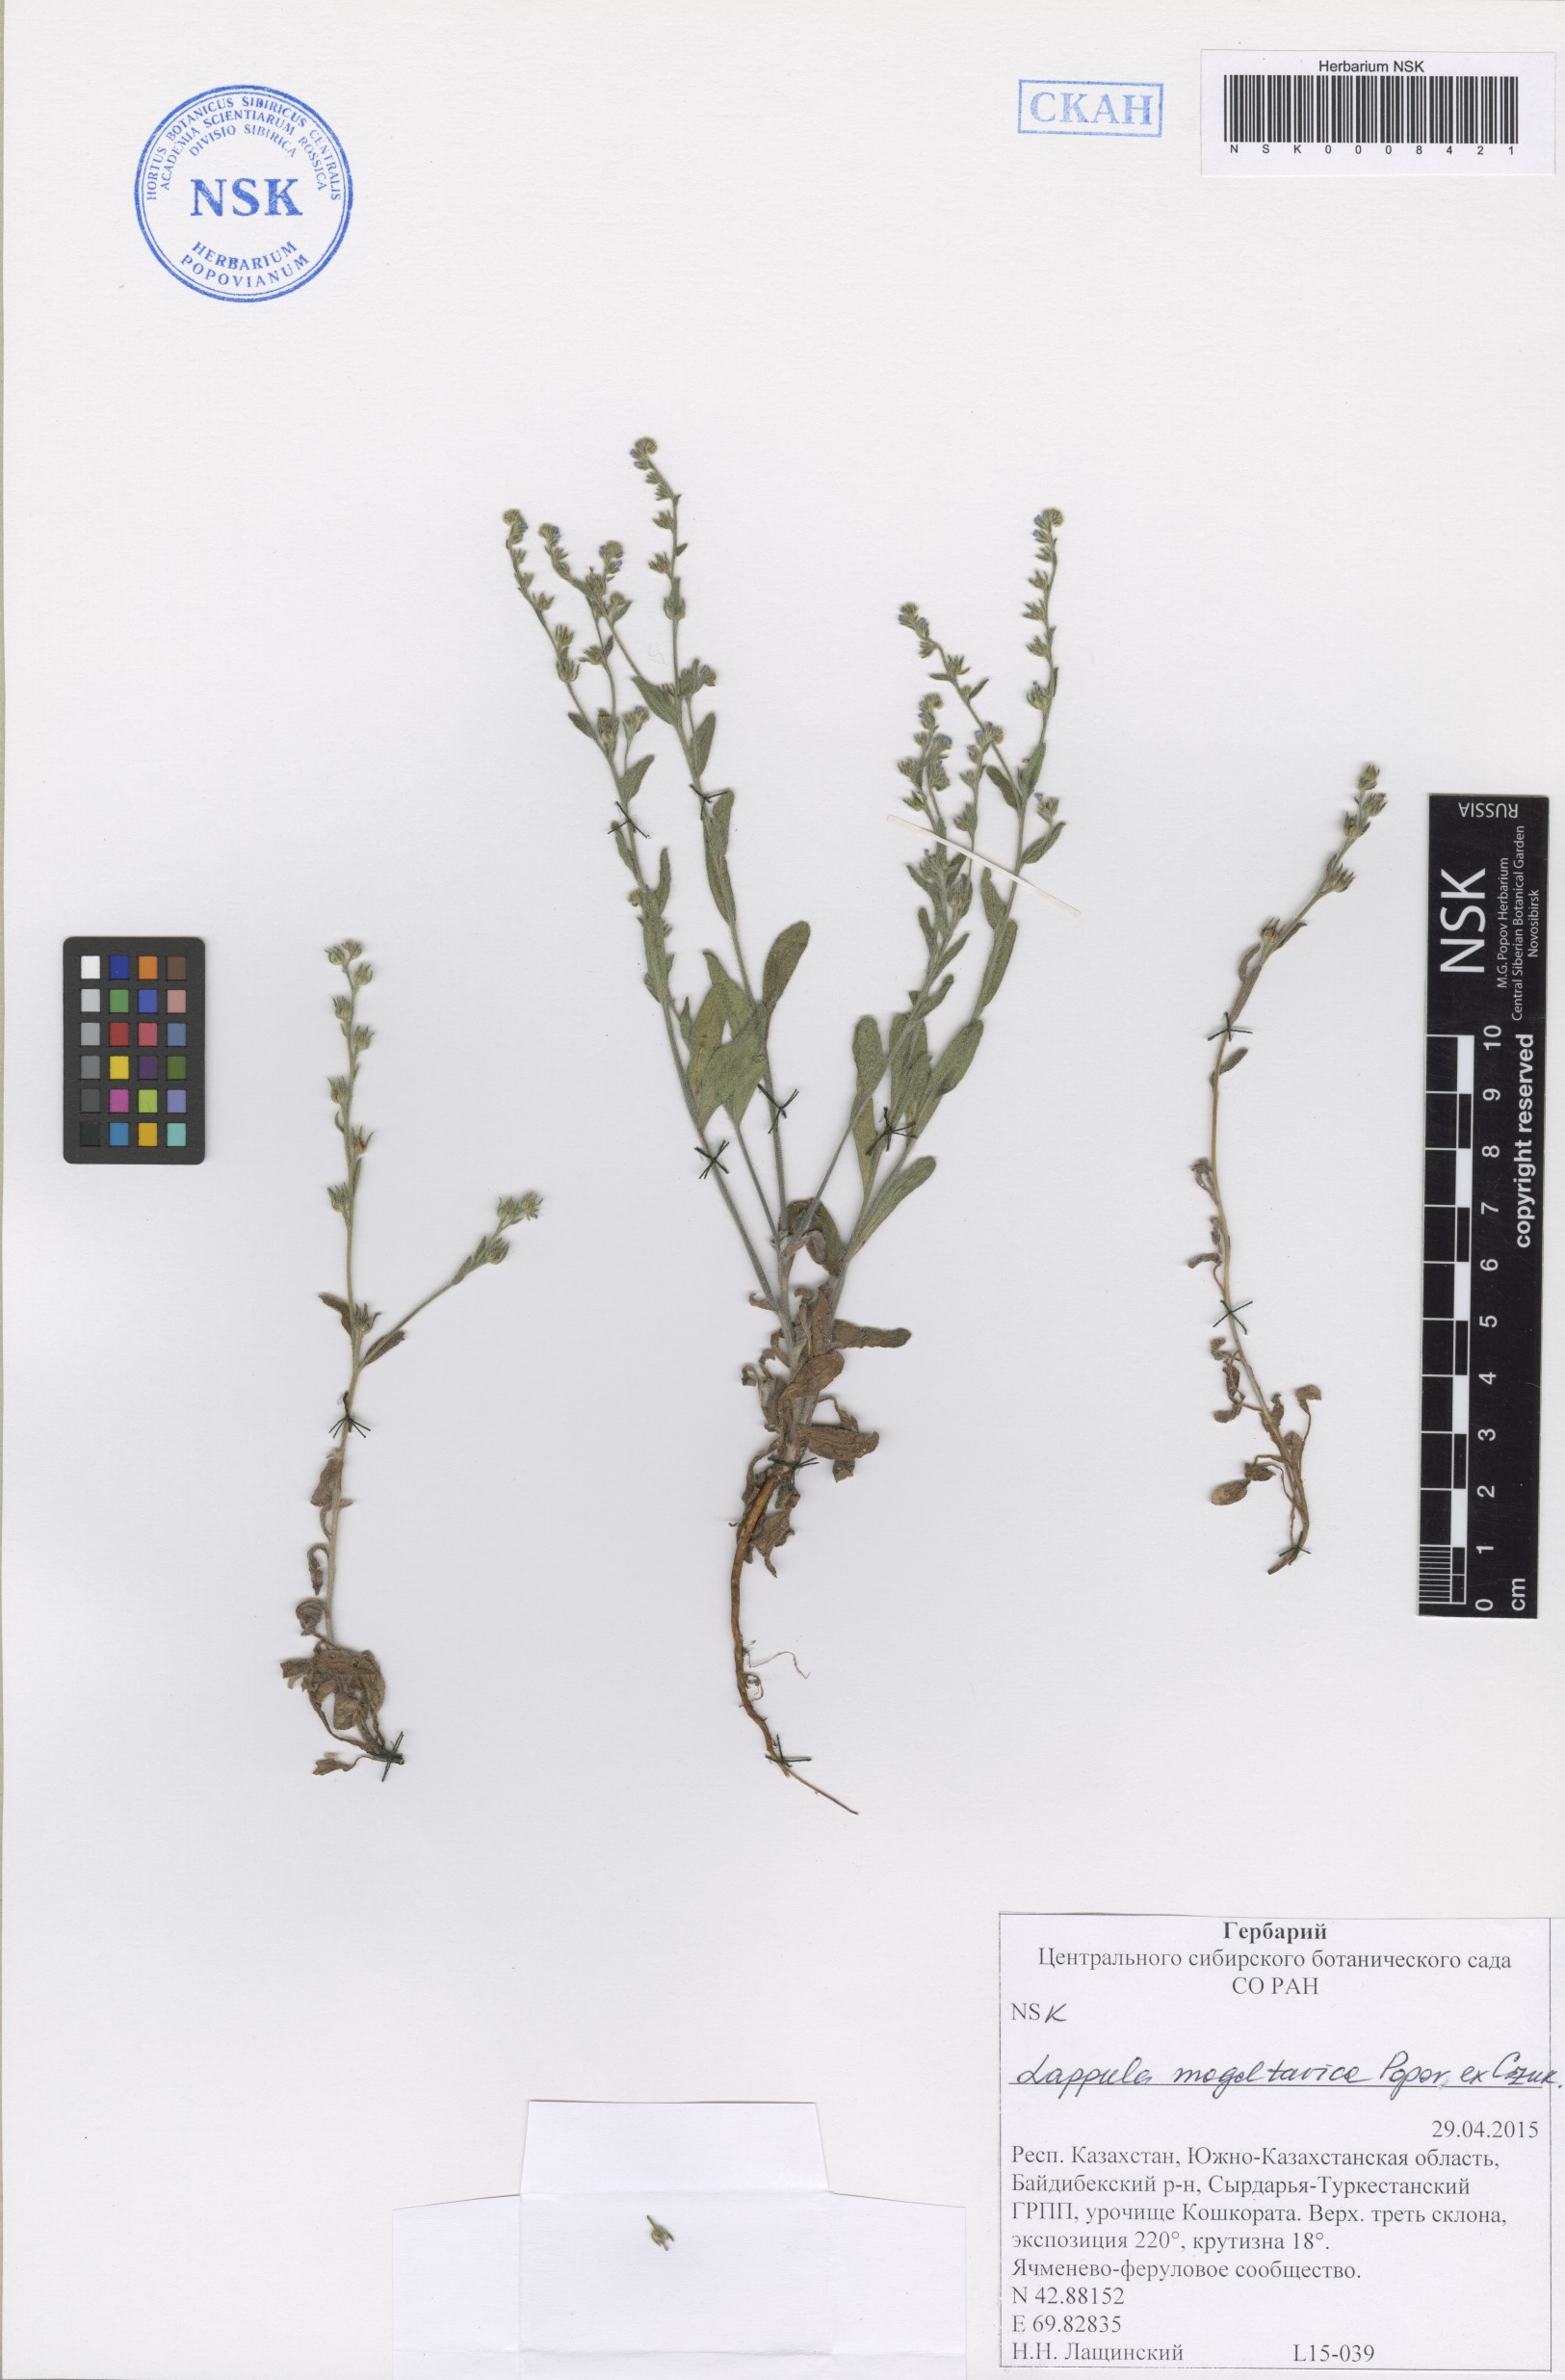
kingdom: Plantae
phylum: Tracheophyta
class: Magnoliopsida
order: Boraginales
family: Boraginaceae
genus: Lappula
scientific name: Lappula mogoltavica
